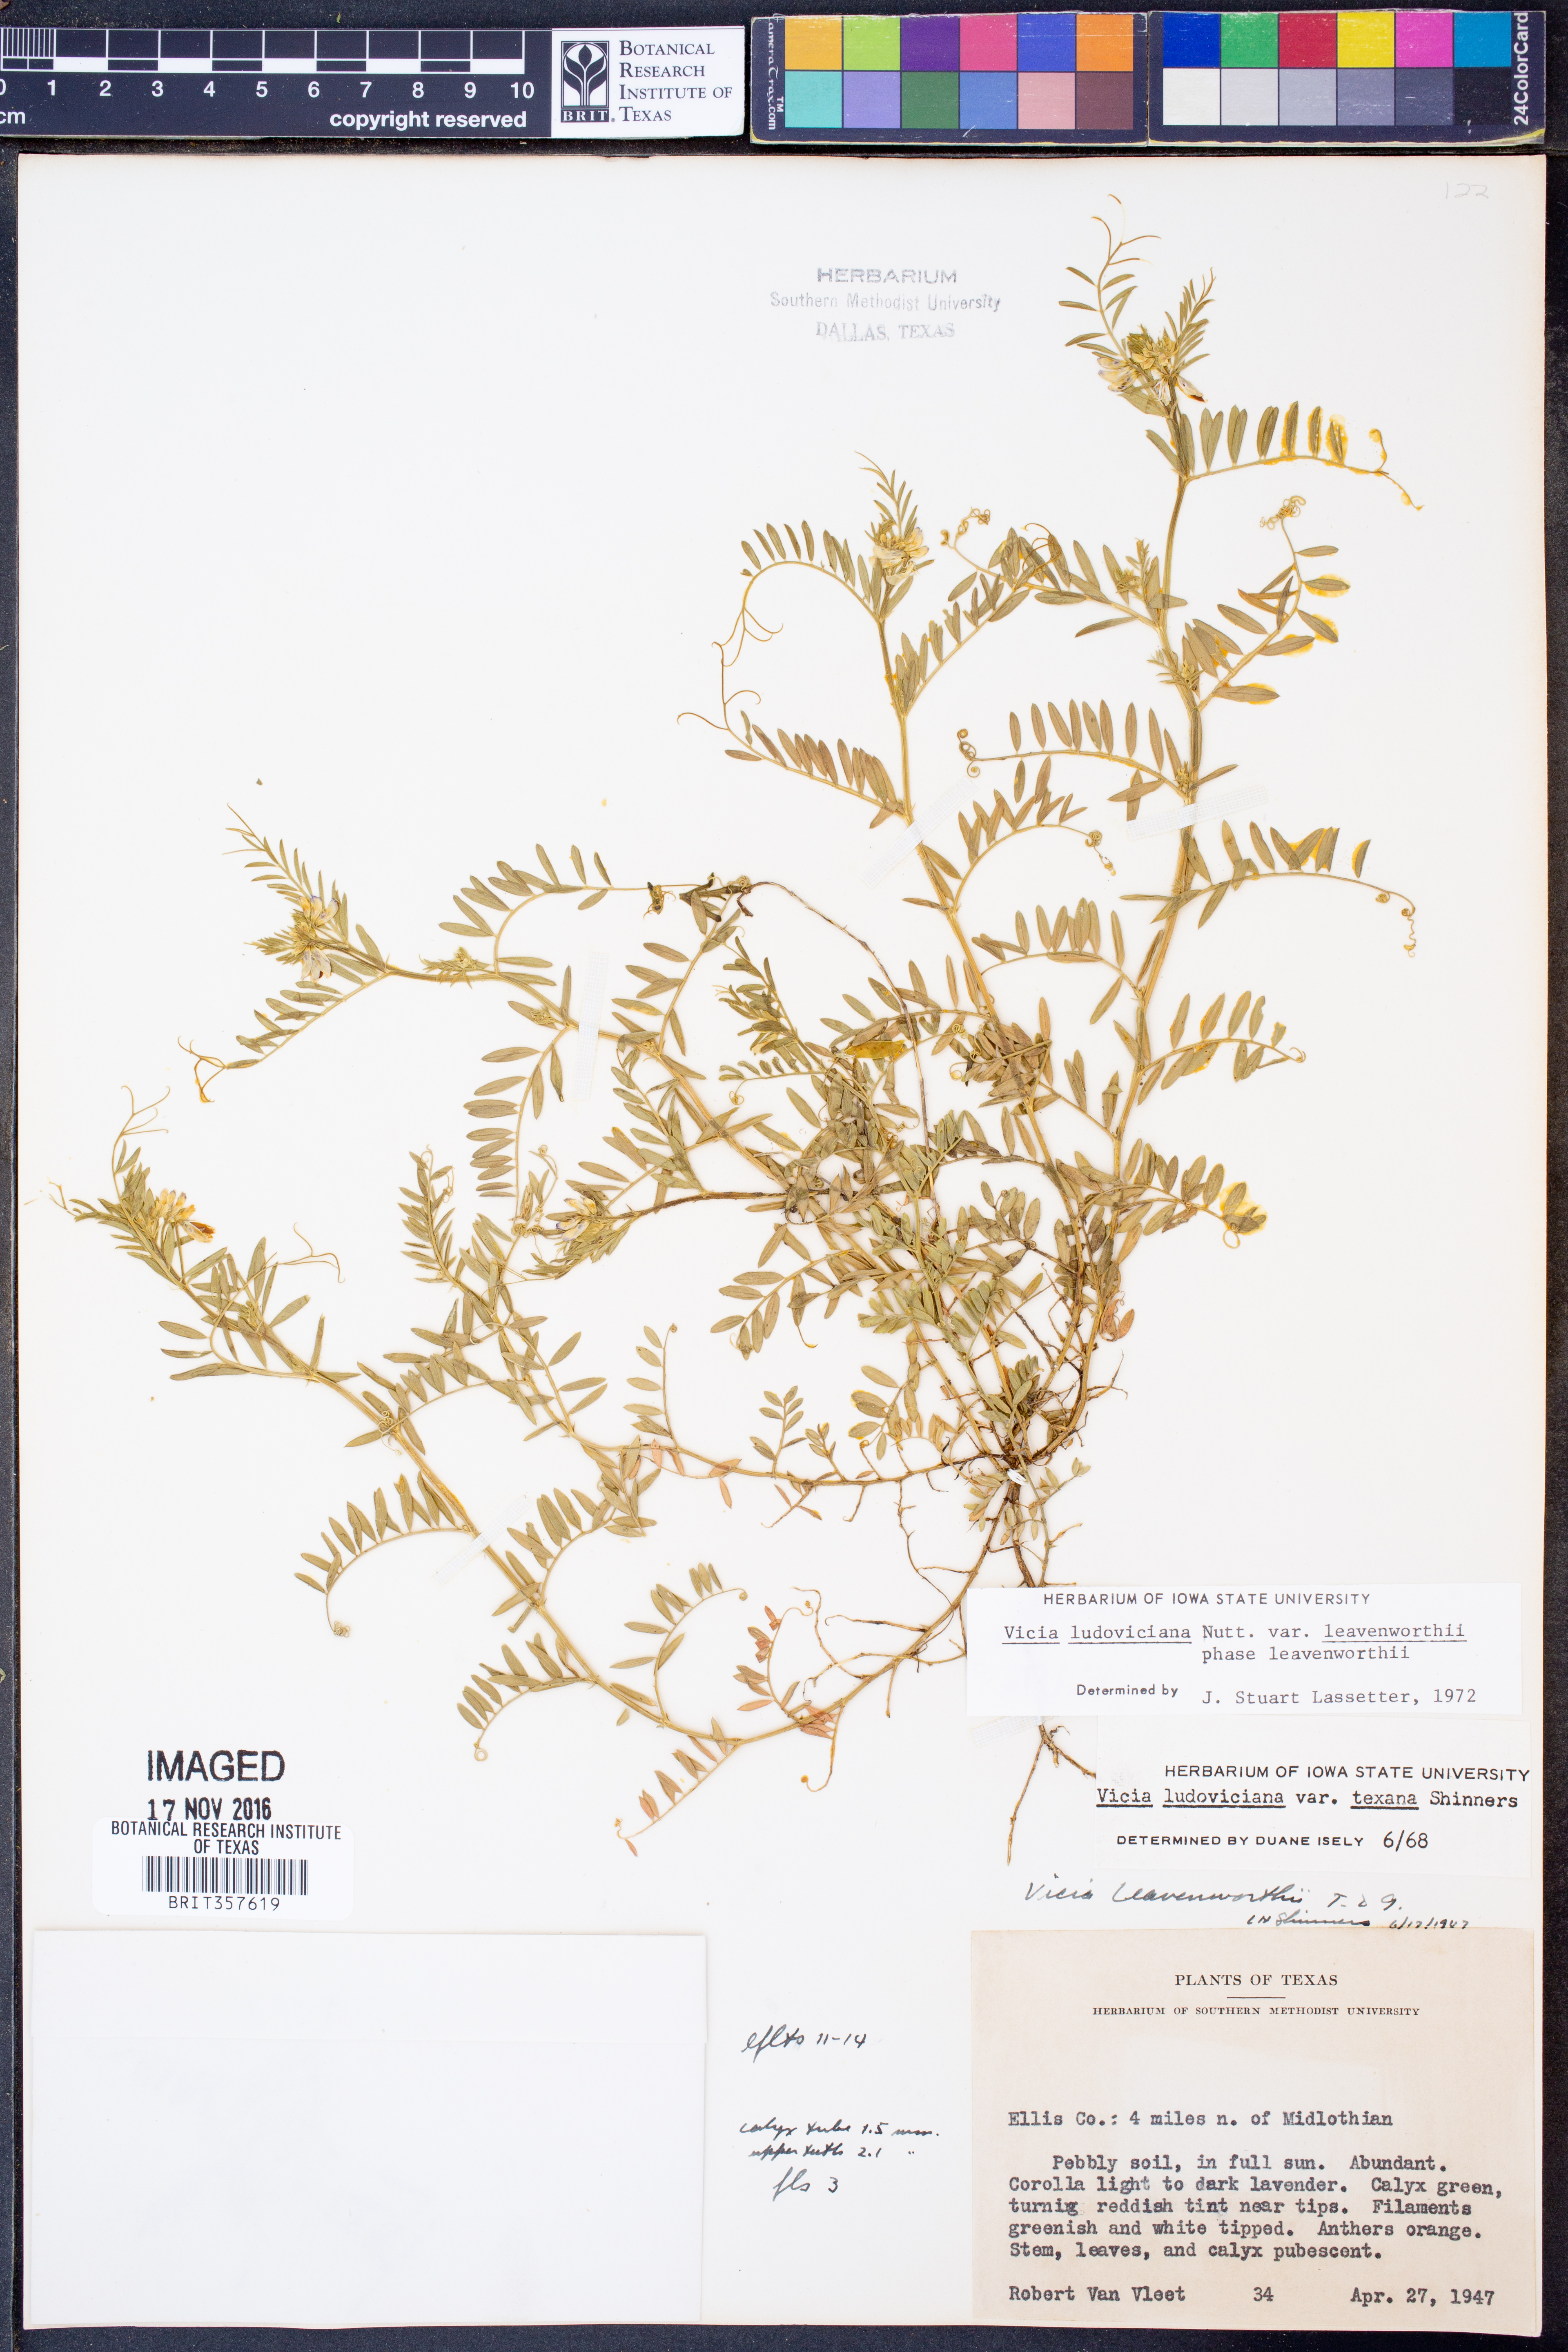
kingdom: Plantae
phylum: Tracheophyta
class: Magnoliopsida
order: Fabales
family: Fabaceae
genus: Vicia
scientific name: Vicia ludoviciana
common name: Louisiana vetch
